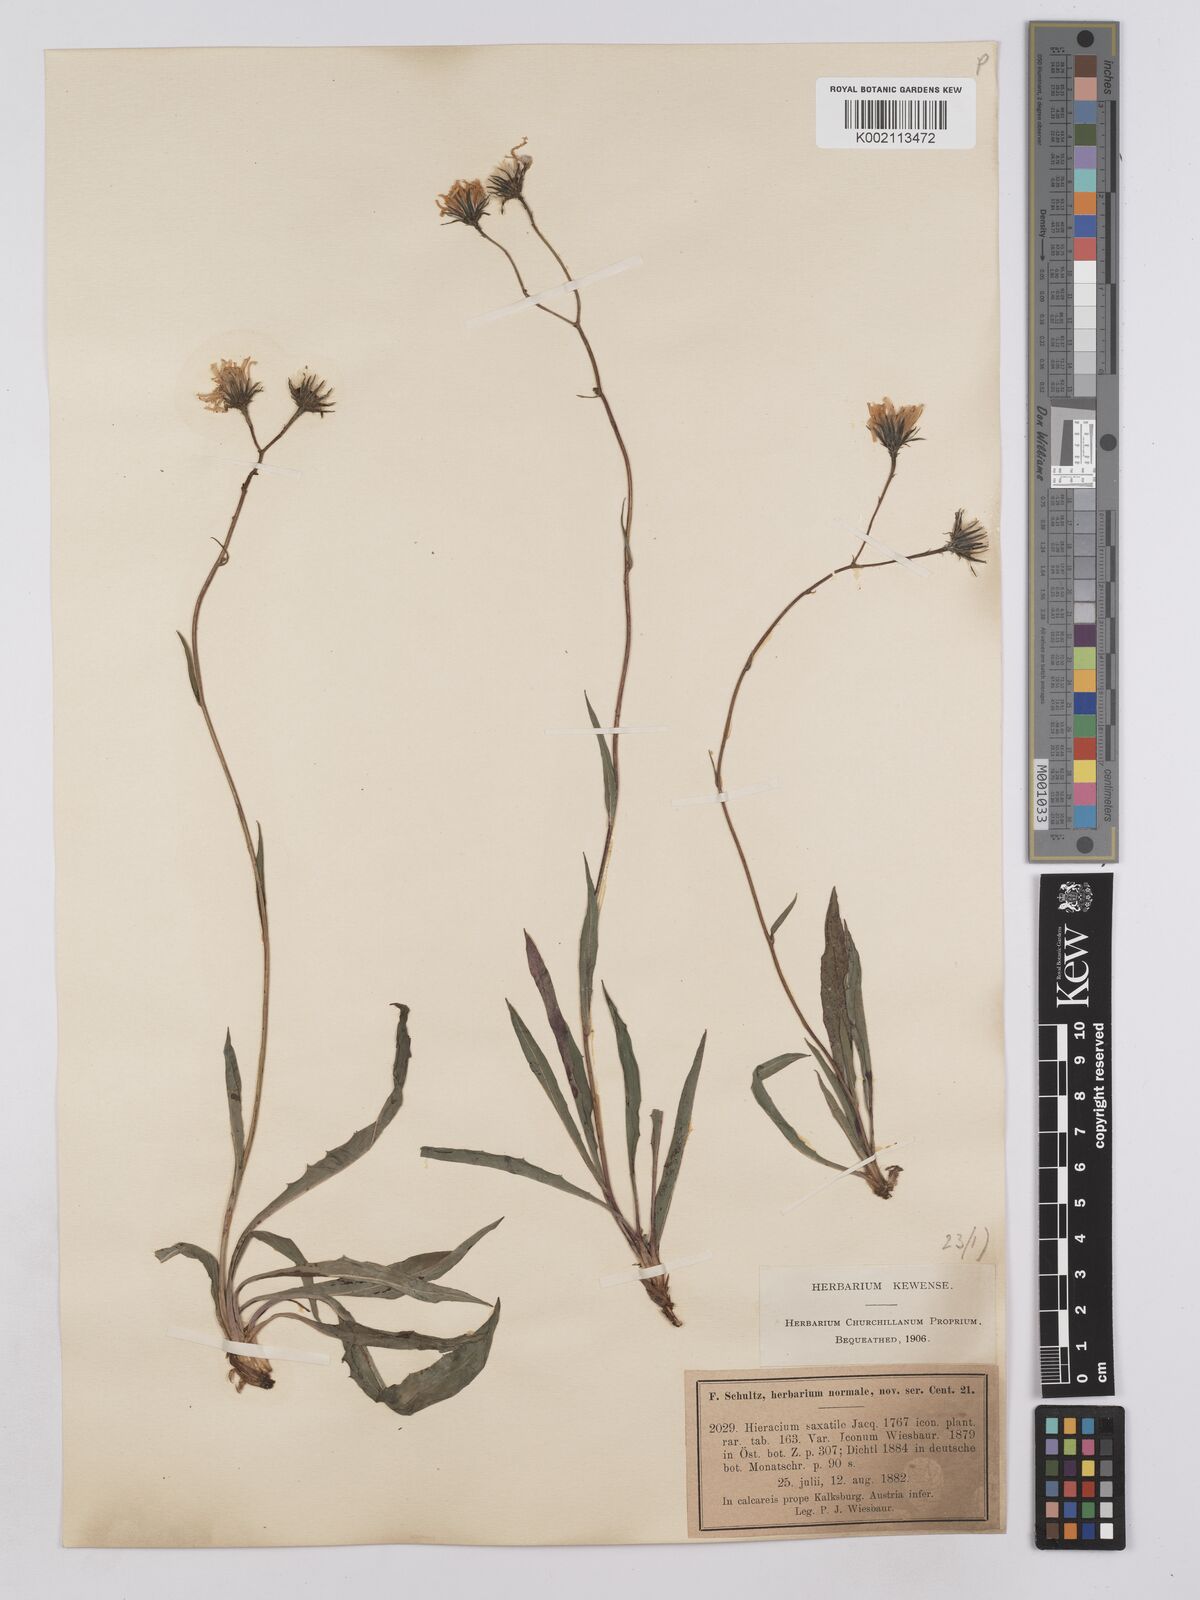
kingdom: Plantae
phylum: Tracheophyta
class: Magnoliopsida
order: Asterales
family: Asteraceae
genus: Hieracium
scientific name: Hieracium saxatile
